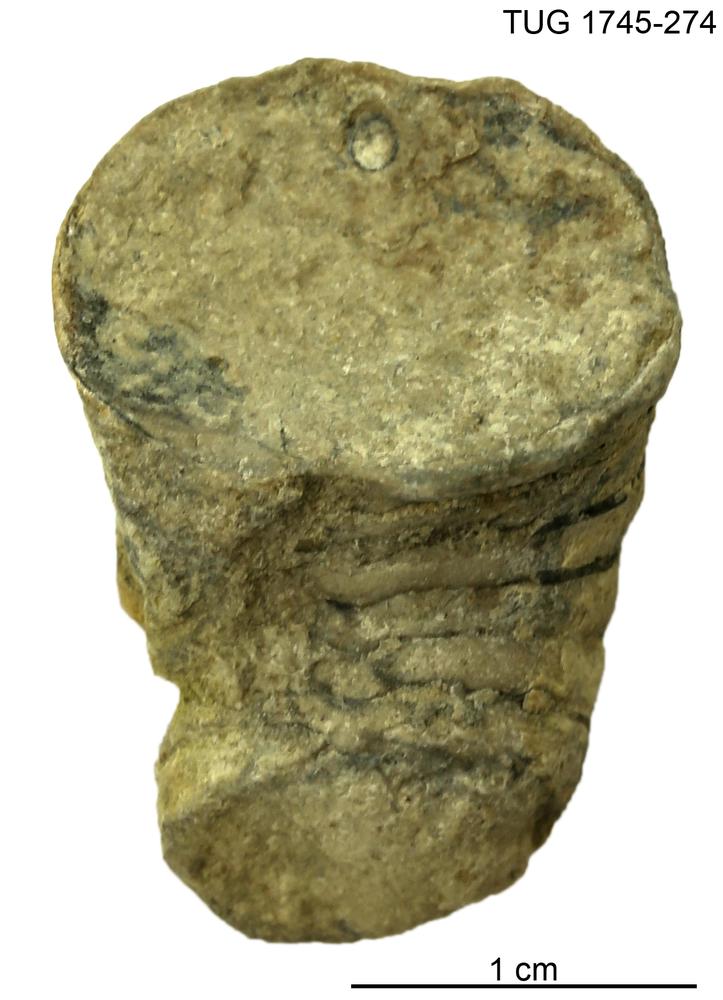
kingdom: Animalia
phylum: Mollusca
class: Cephalopoda
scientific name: Cephalopoda
